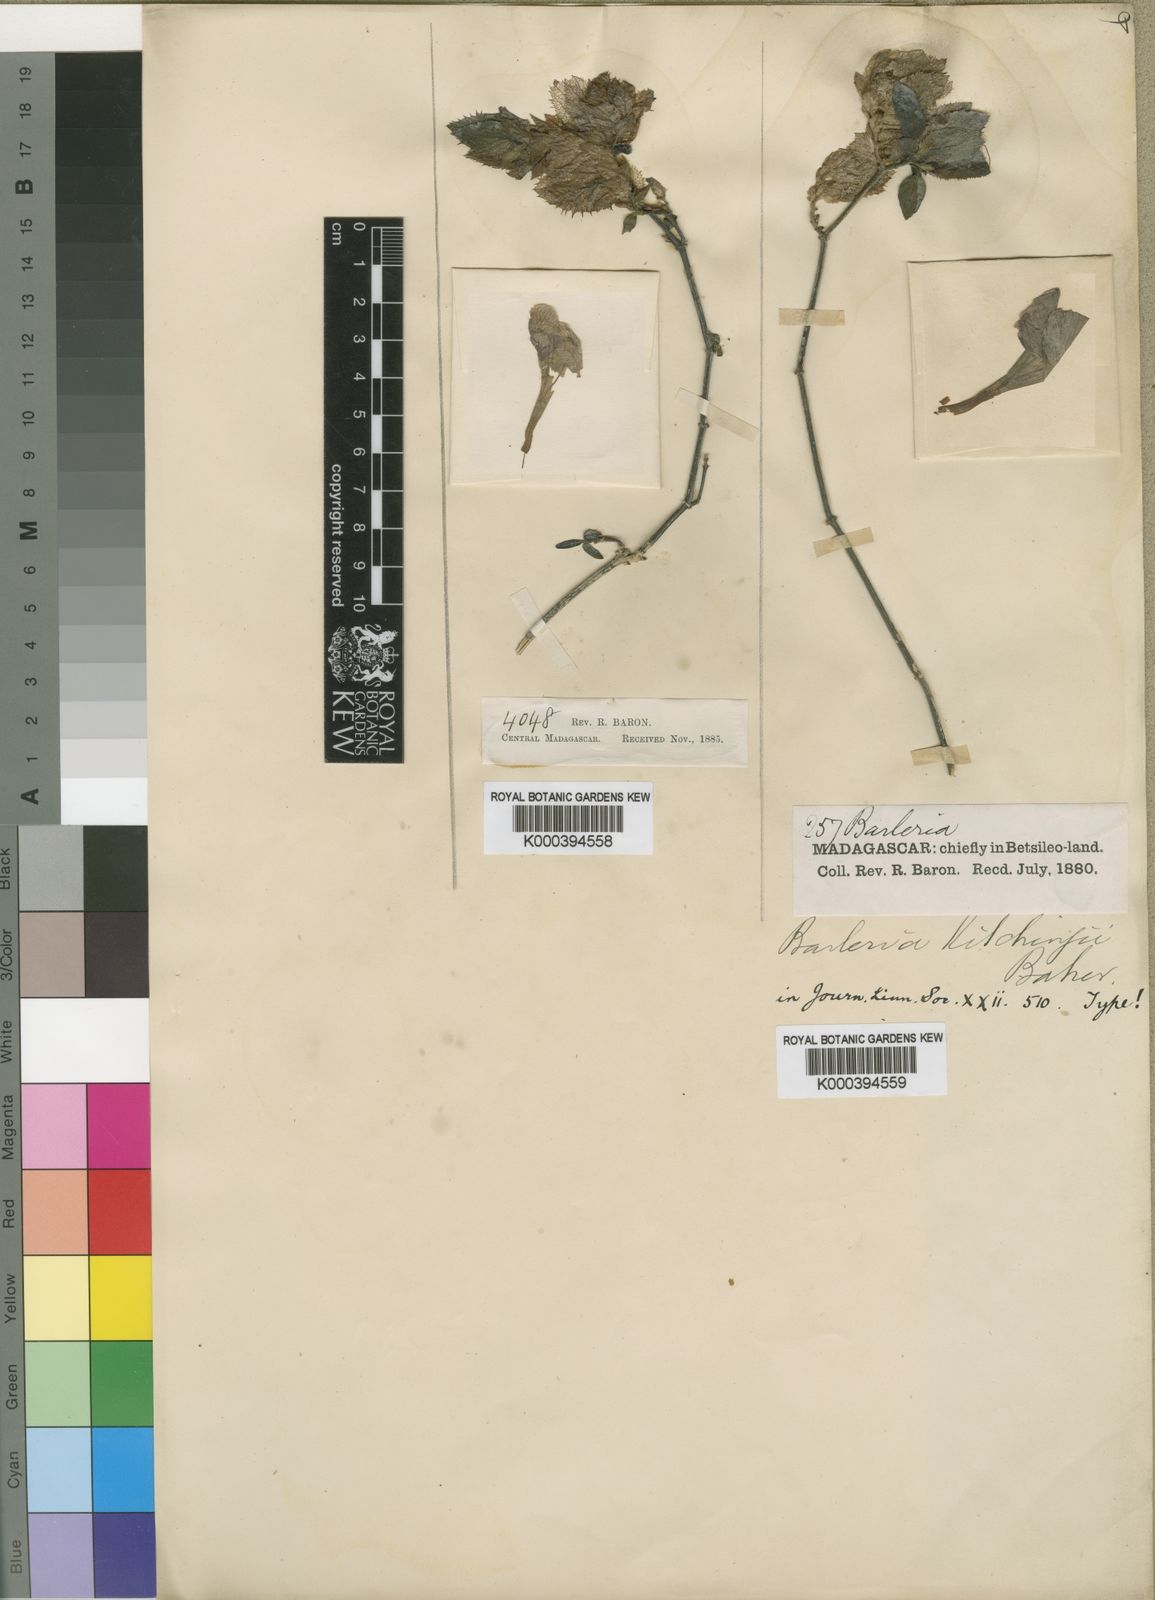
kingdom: Plantae
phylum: Tracheophyta
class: Magnoliopsida
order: Lamiales
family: Acanthaceae
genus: Barleria
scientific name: Barleria kitchingii
